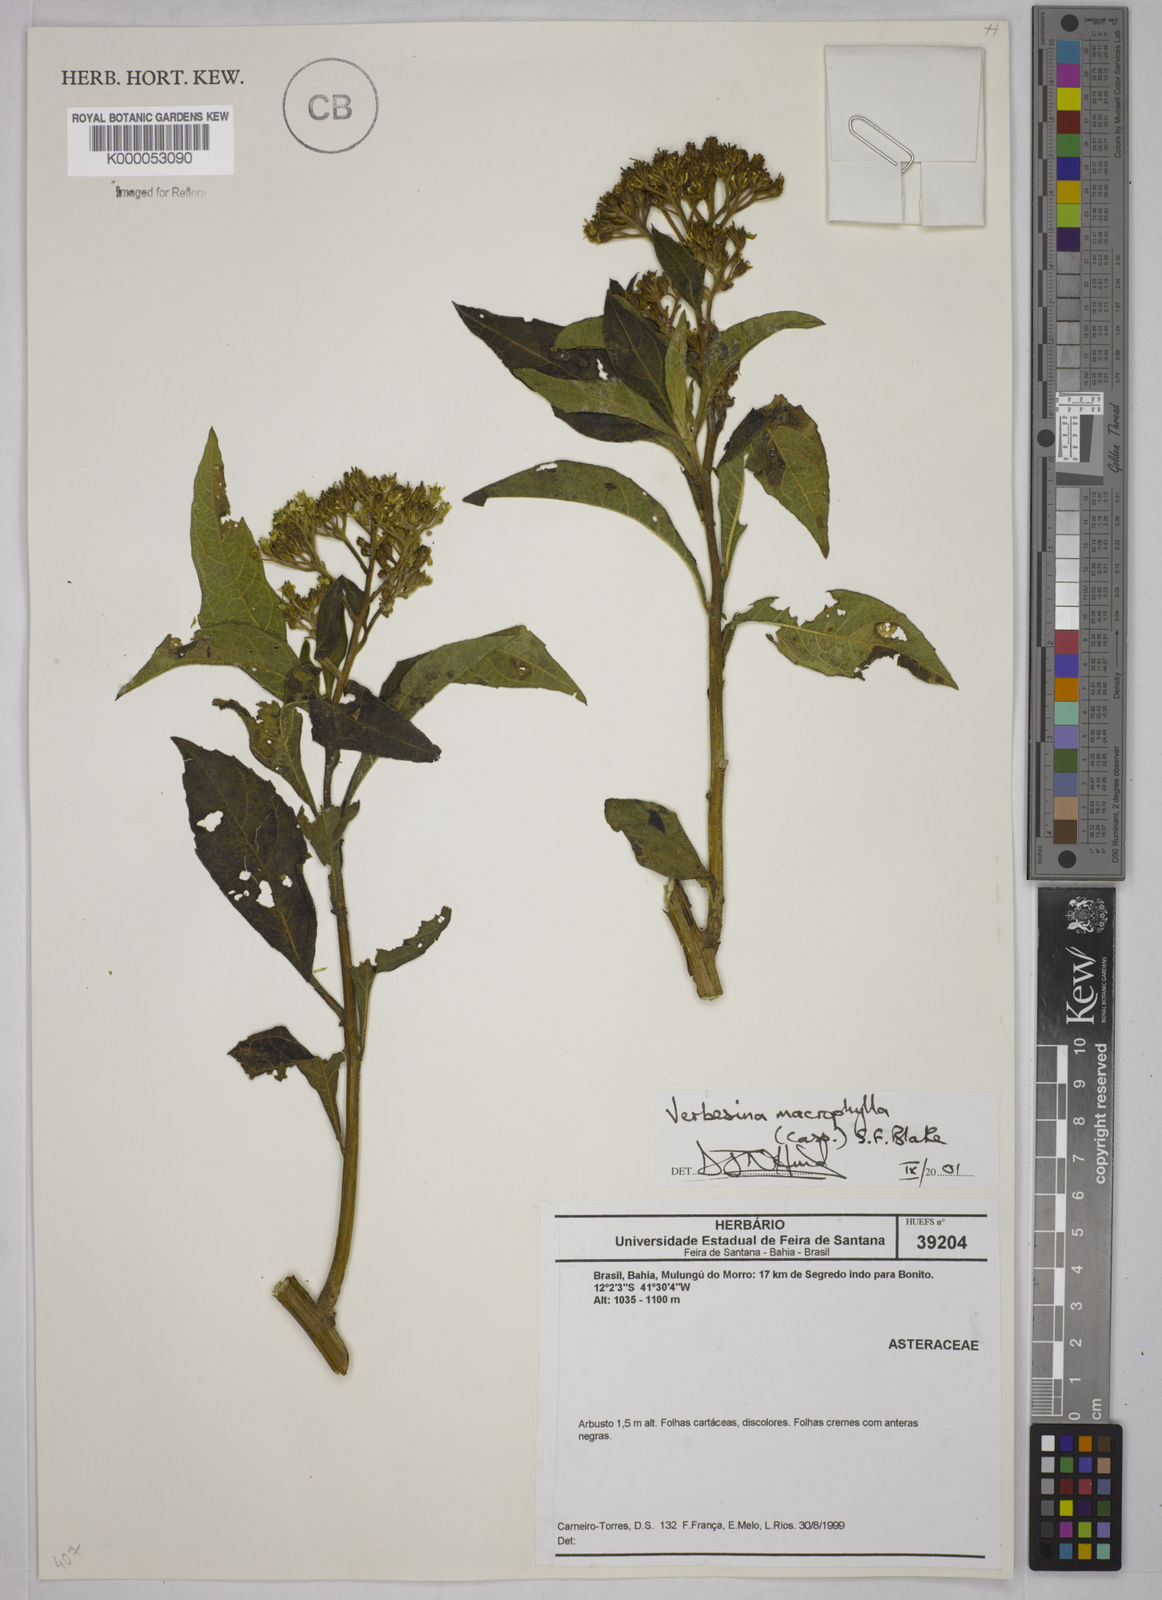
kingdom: Plantae
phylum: Tracheophyta
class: Magnoliopsida
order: Asterales
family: Asteraceae
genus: Verbesina
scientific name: Verbesina macrophylla
